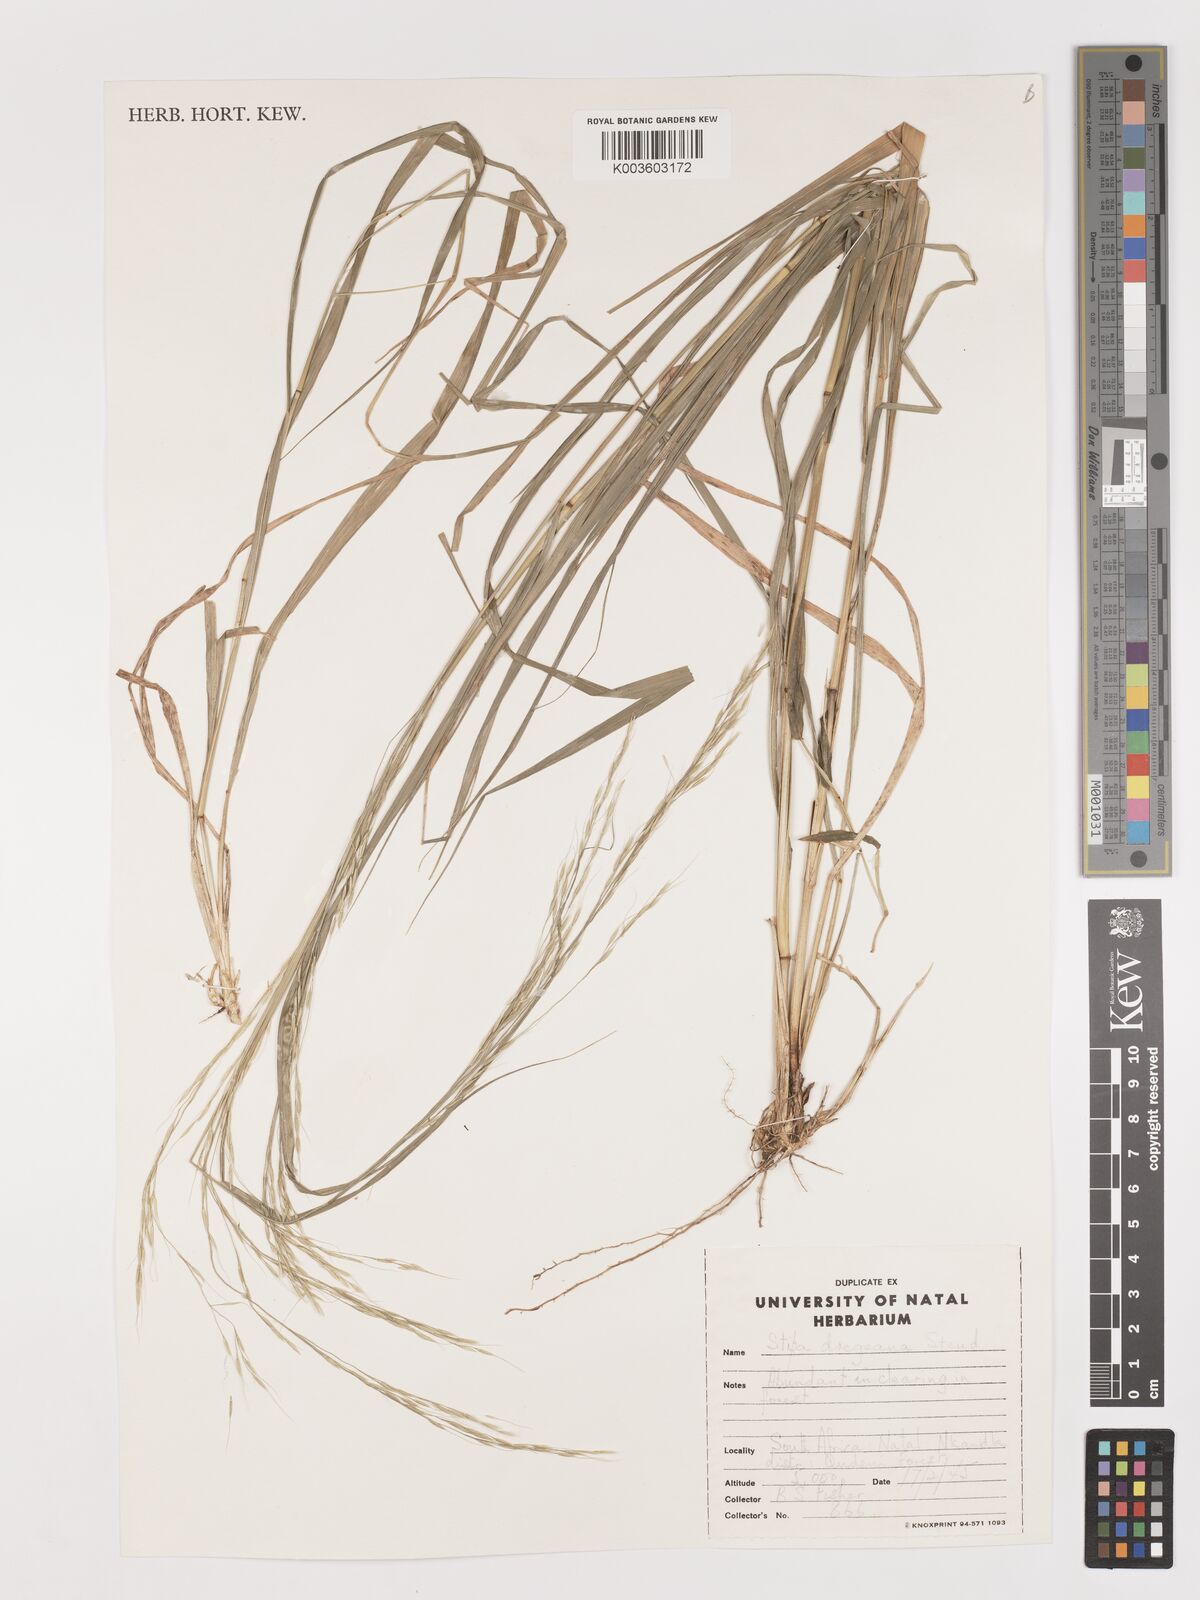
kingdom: Plantae
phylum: Tracheophyta
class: Liliopsida
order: Poales
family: Poaceae
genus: Stipa
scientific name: Stipa dregeana
